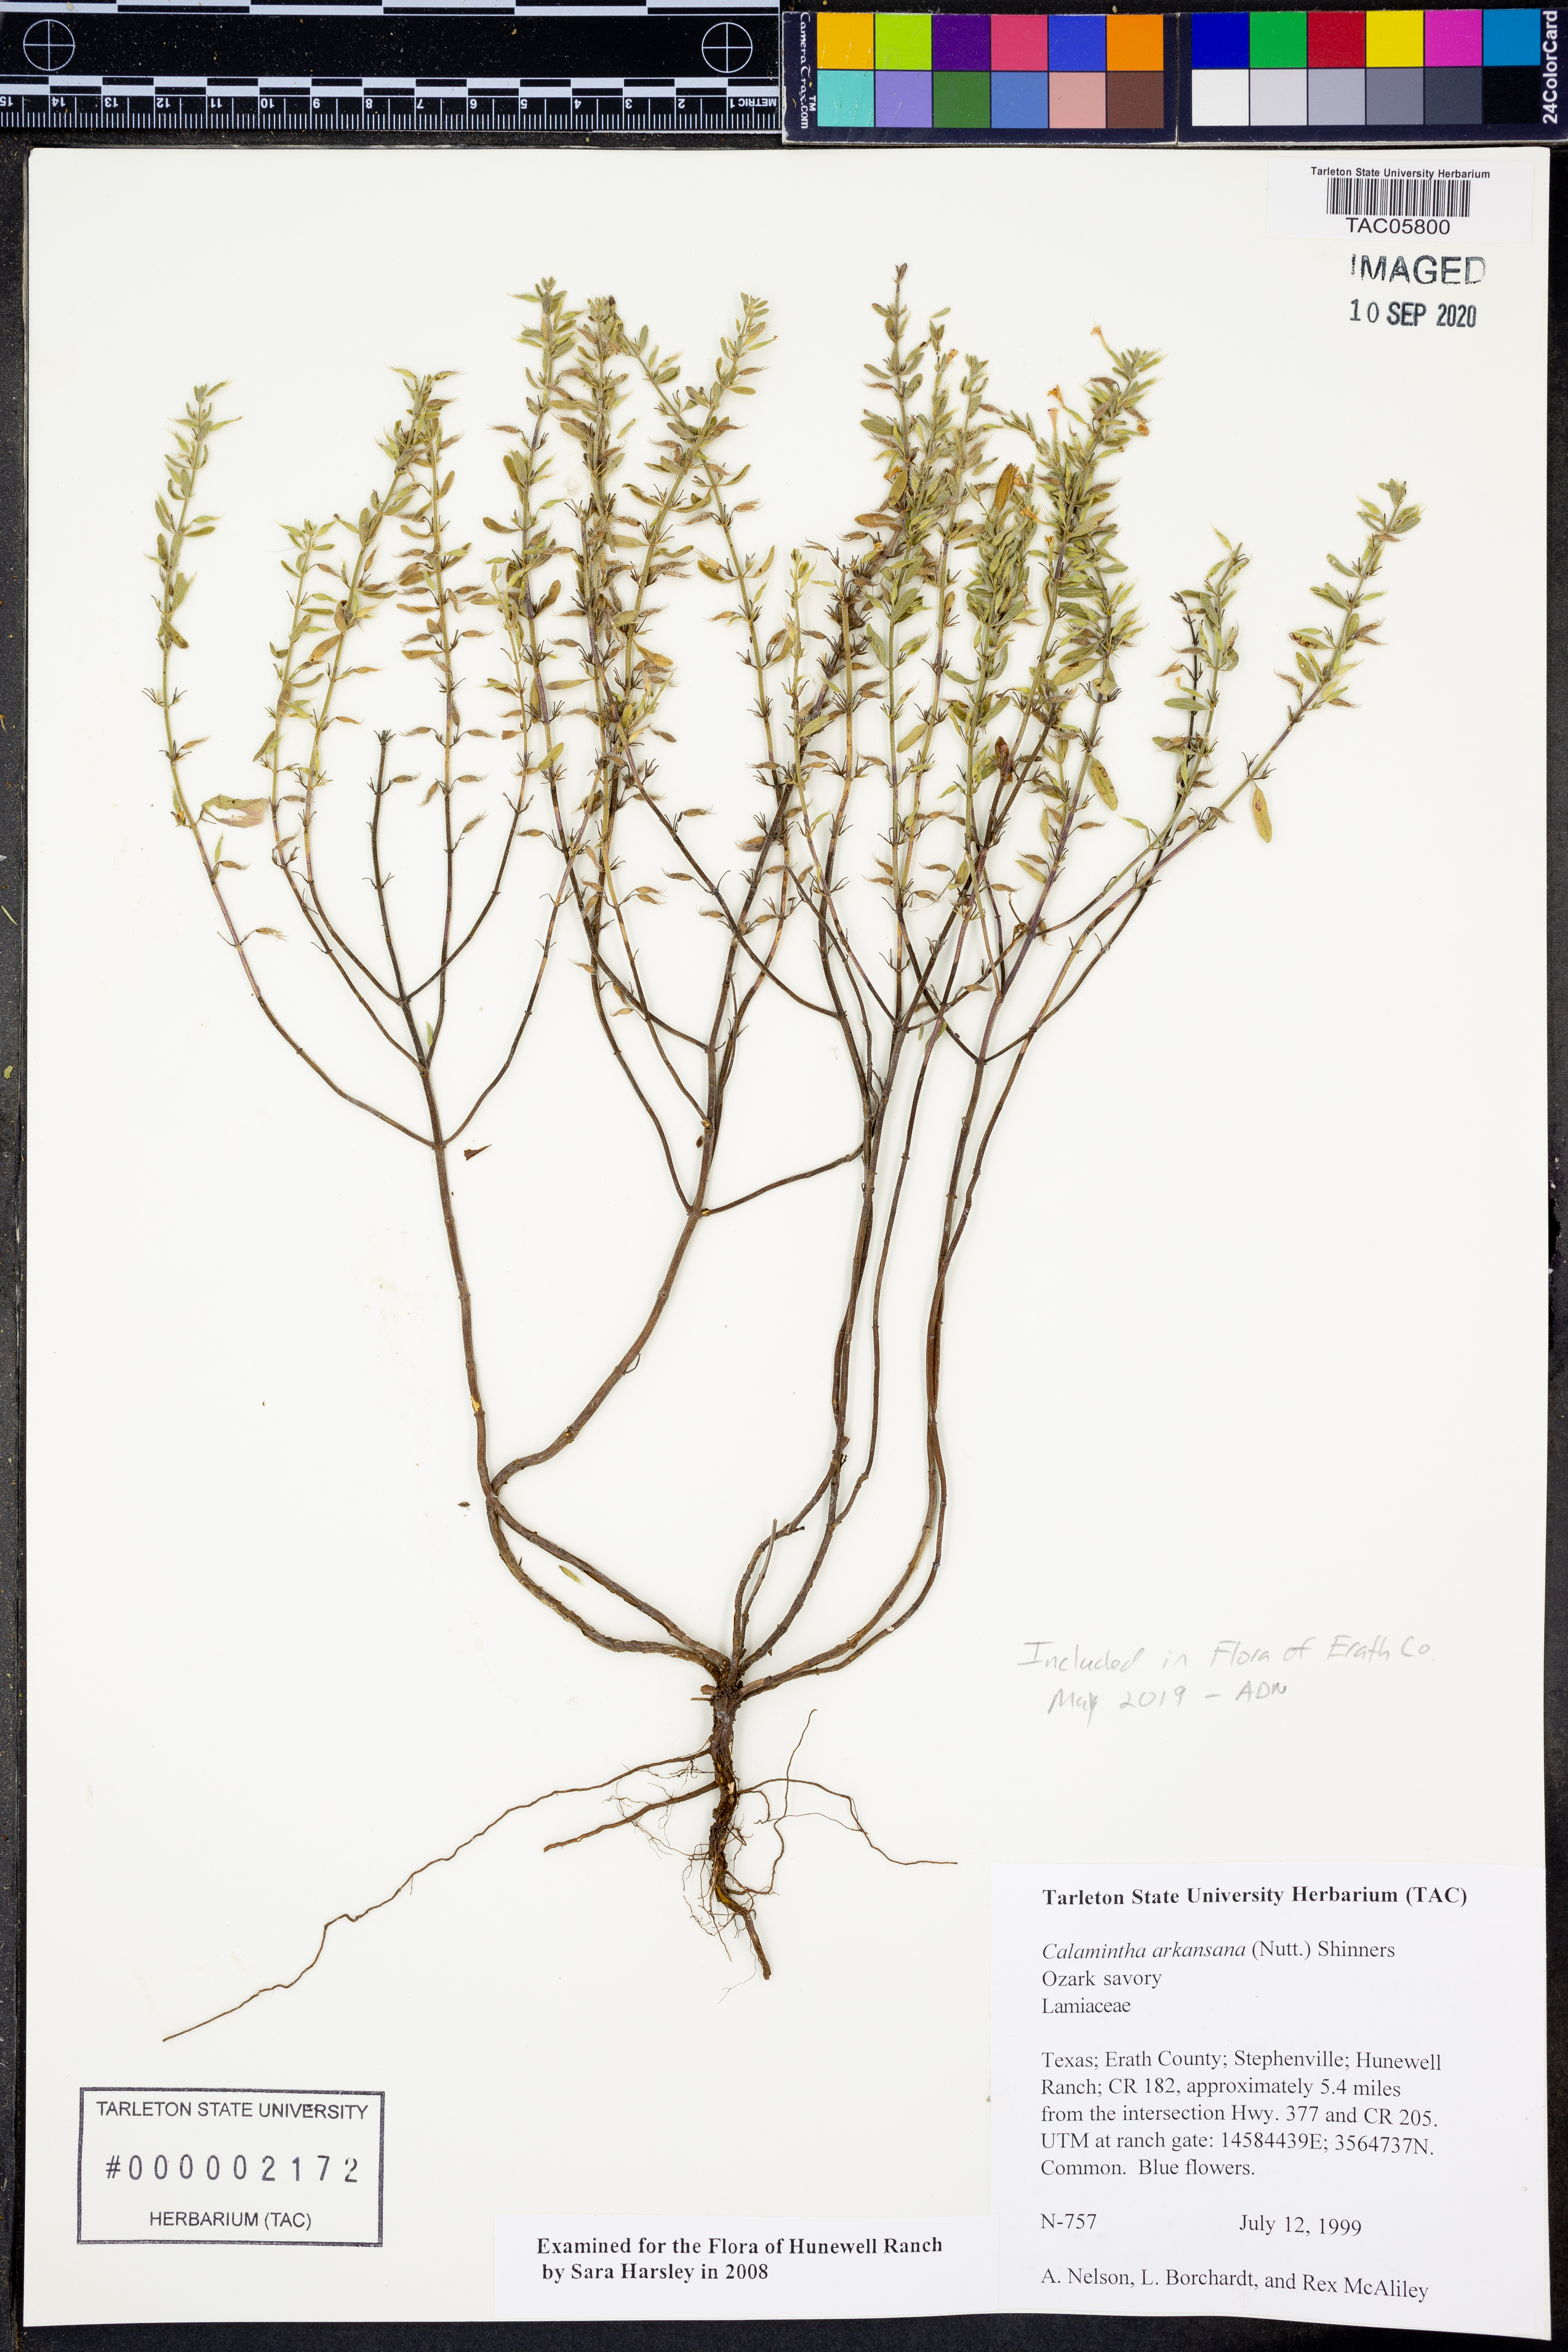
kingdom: Plantae
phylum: Tracheophyta
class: Magnoliopsida
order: Lamiales
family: Lamiaceae
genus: Clinopodium
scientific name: Clinopodium arkansanum
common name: Limestone calamint
